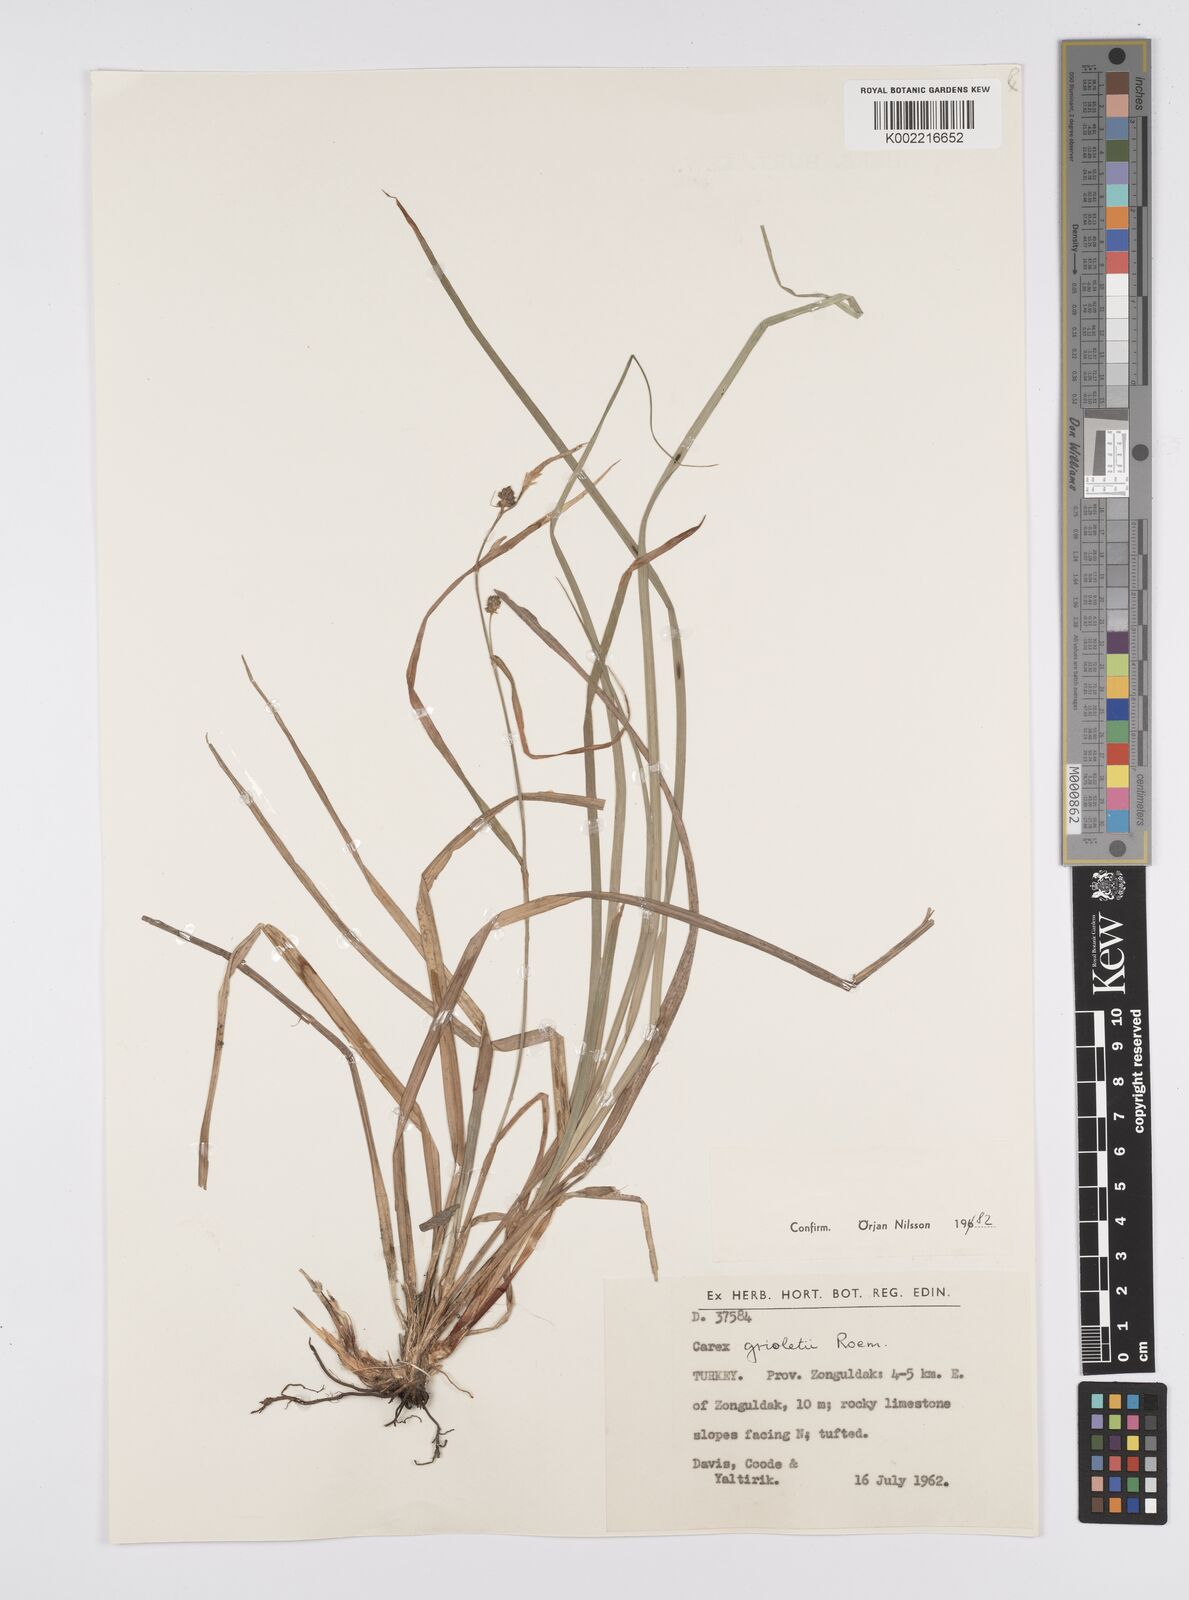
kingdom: Plantae
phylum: Tracheophyta
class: Liliopsida
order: Poales
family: Cyperaceae
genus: Carex
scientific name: Carex grioletii
